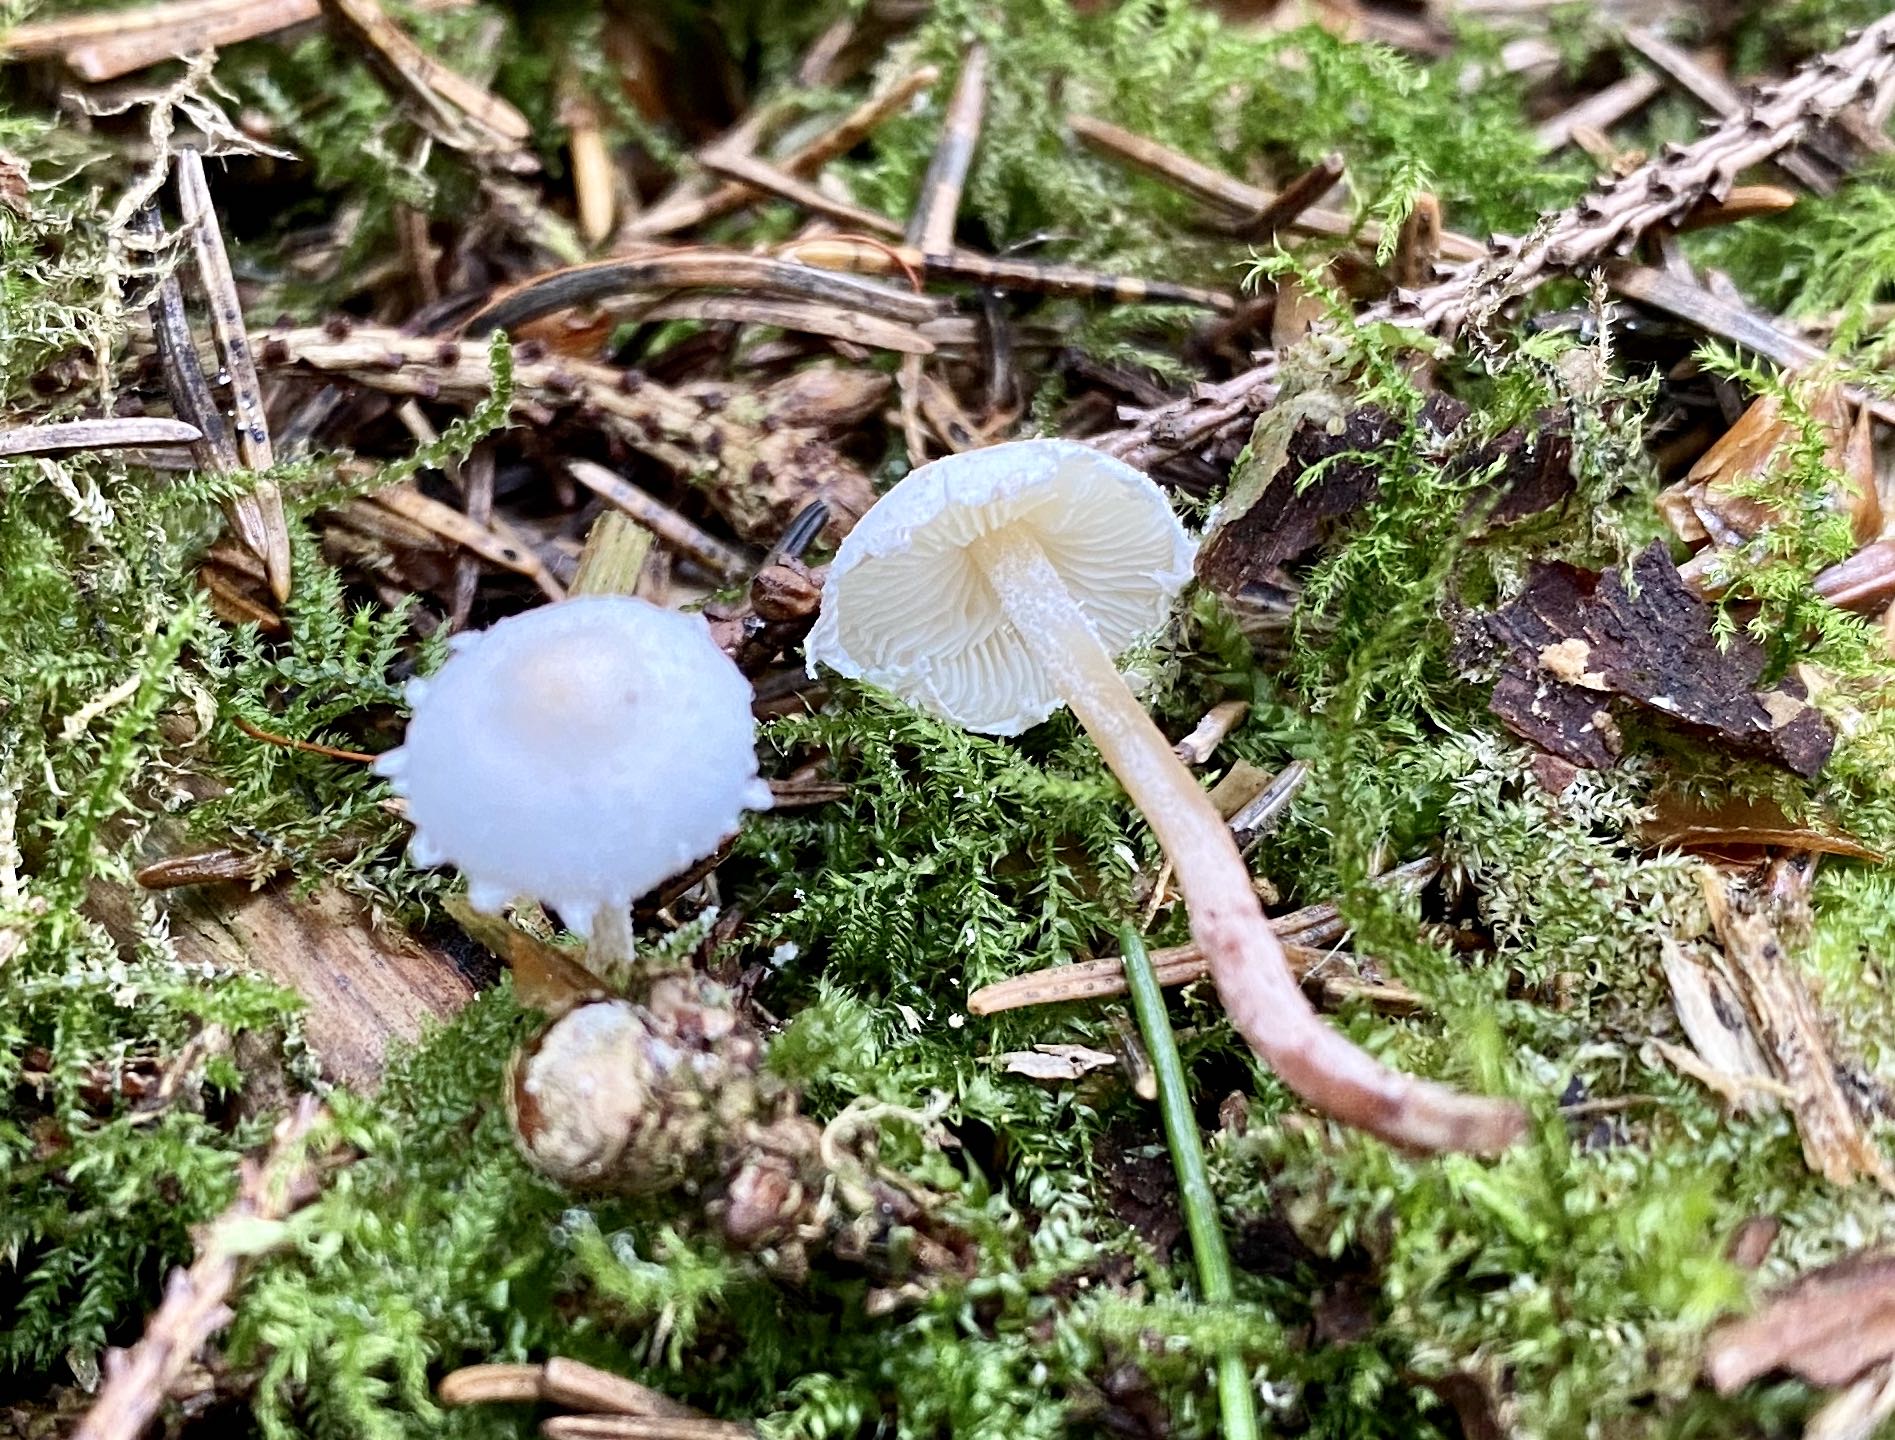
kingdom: Fungi
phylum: Basidiomycota
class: Agaricomycetes
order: Agaricales
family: Agaricaceae
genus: Cystolepiota
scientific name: Cystolepiota seminuda
